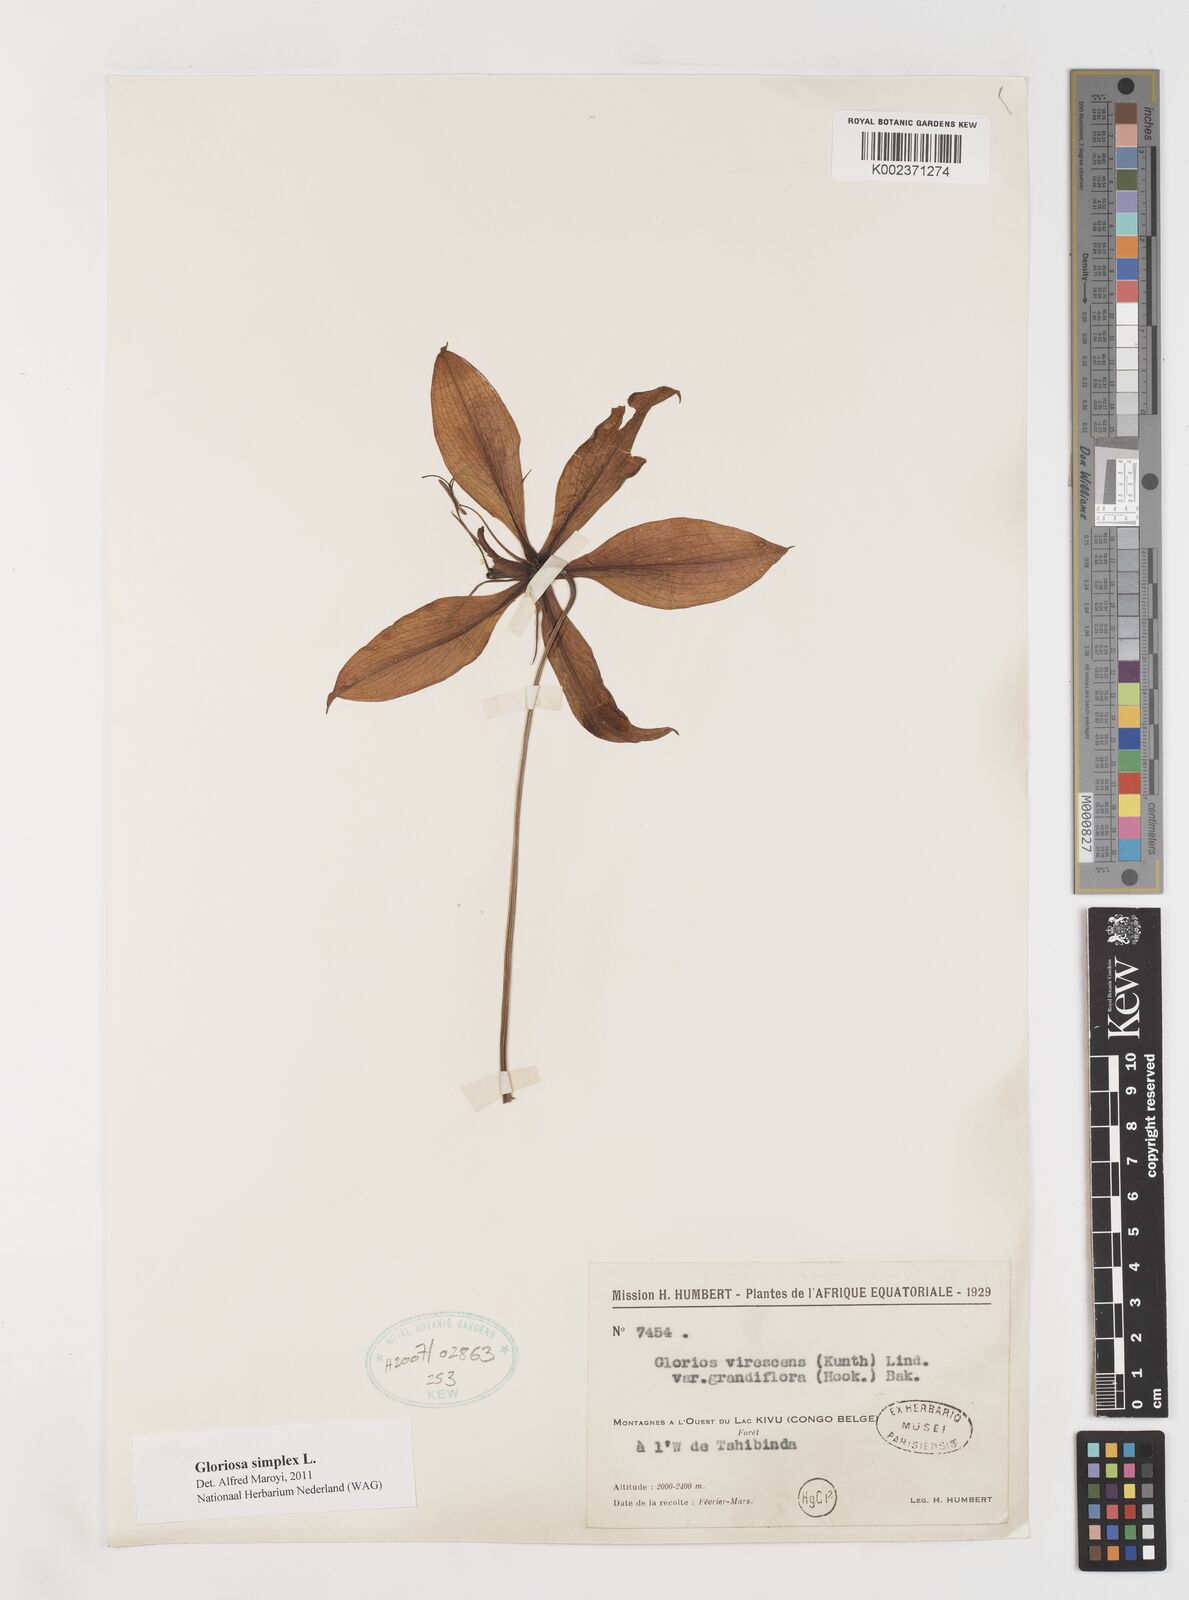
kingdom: Plantae
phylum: Tracheophyta
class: Liliopsida
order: Liliales
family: Colchicaceae
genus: Gloriosa
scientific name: Gloriosa simplex
